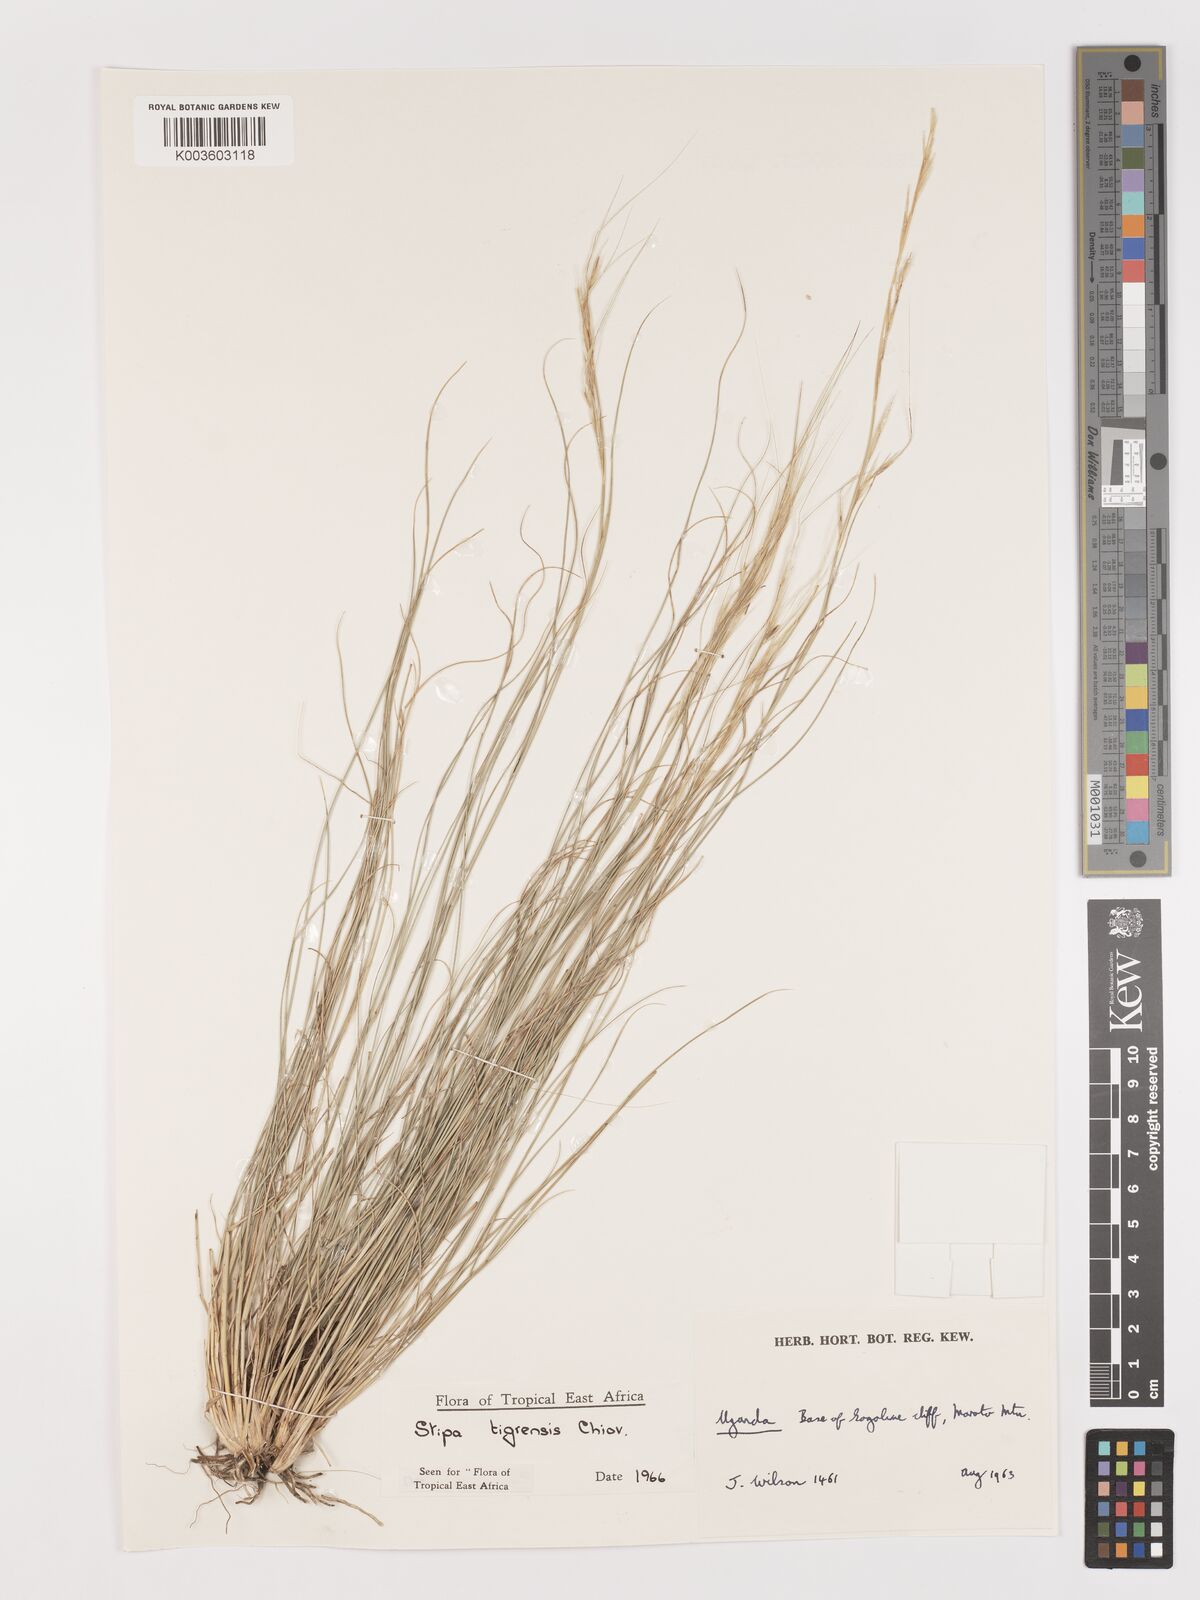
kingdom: Plantae
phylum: Tracheophyta
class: Liliopsida
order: Poales
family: Poaceae
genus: Stipa
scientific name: Stipa tigrensis
